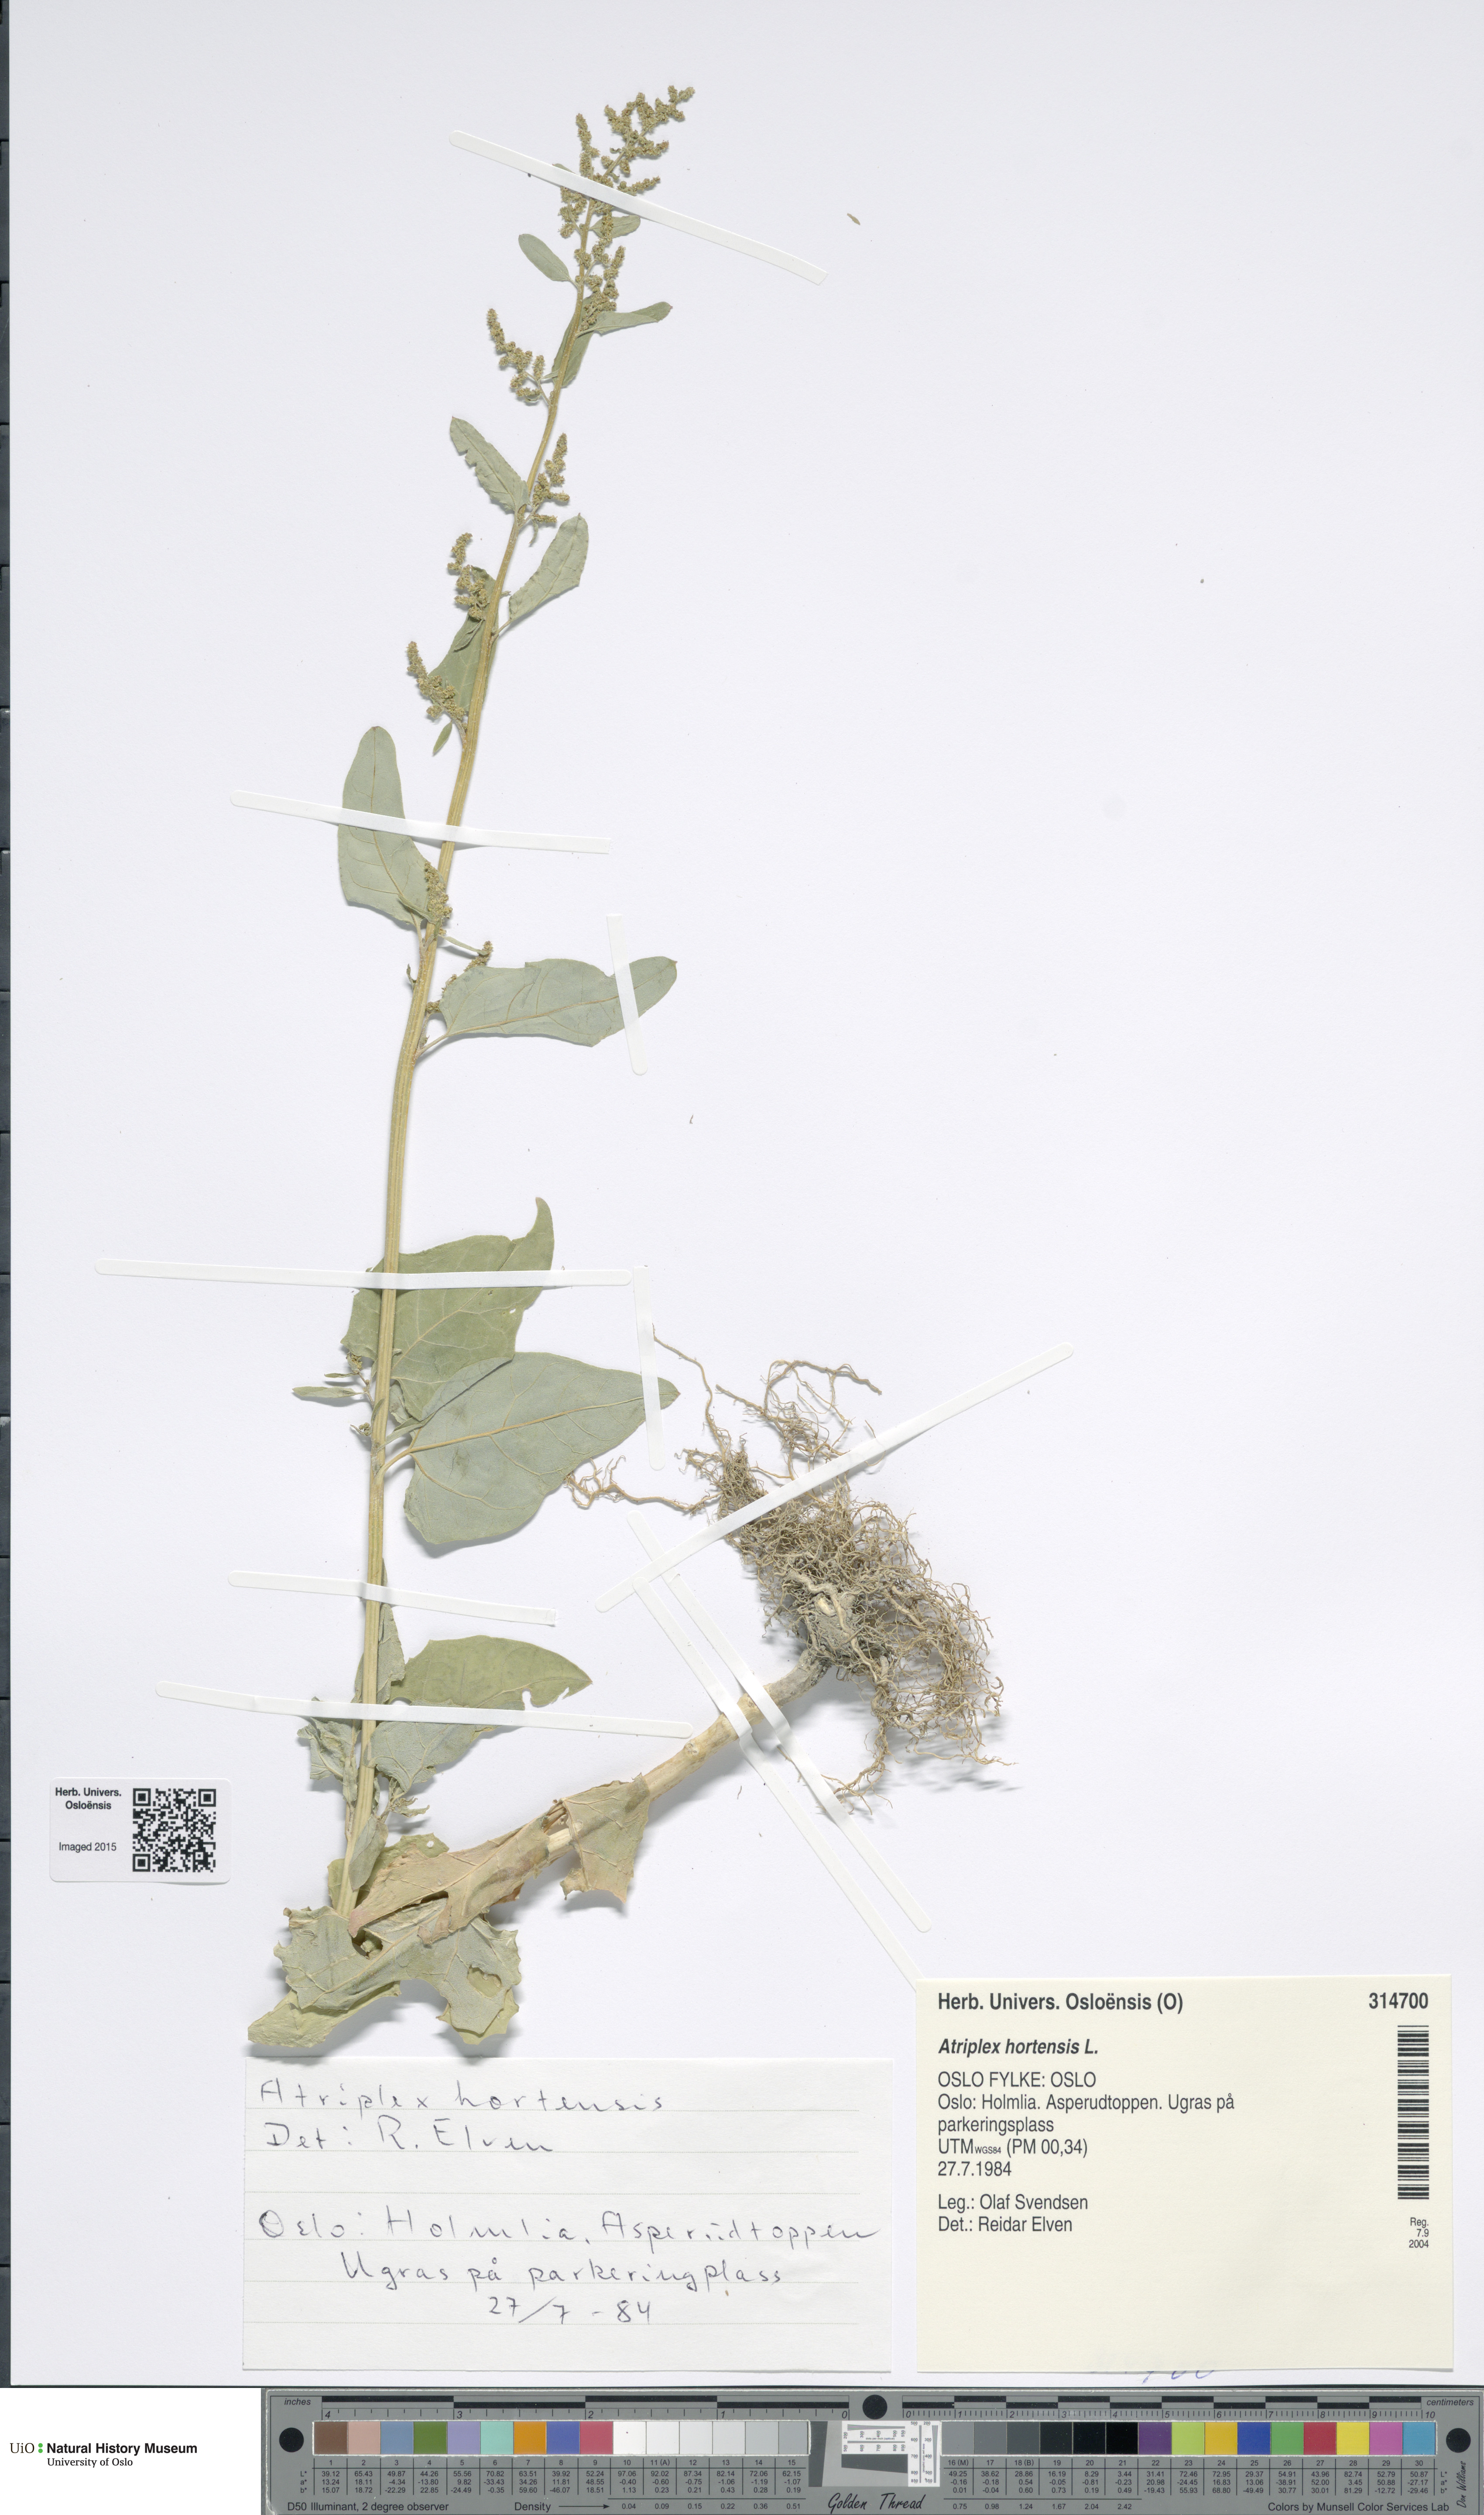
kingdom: Plantae
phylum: Tracheophyta
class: Magnoliopsida
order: Caryophyllales
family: Amaranthaceae
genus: Atriplex
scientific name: Atriplex hortensis
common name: Garden orache
